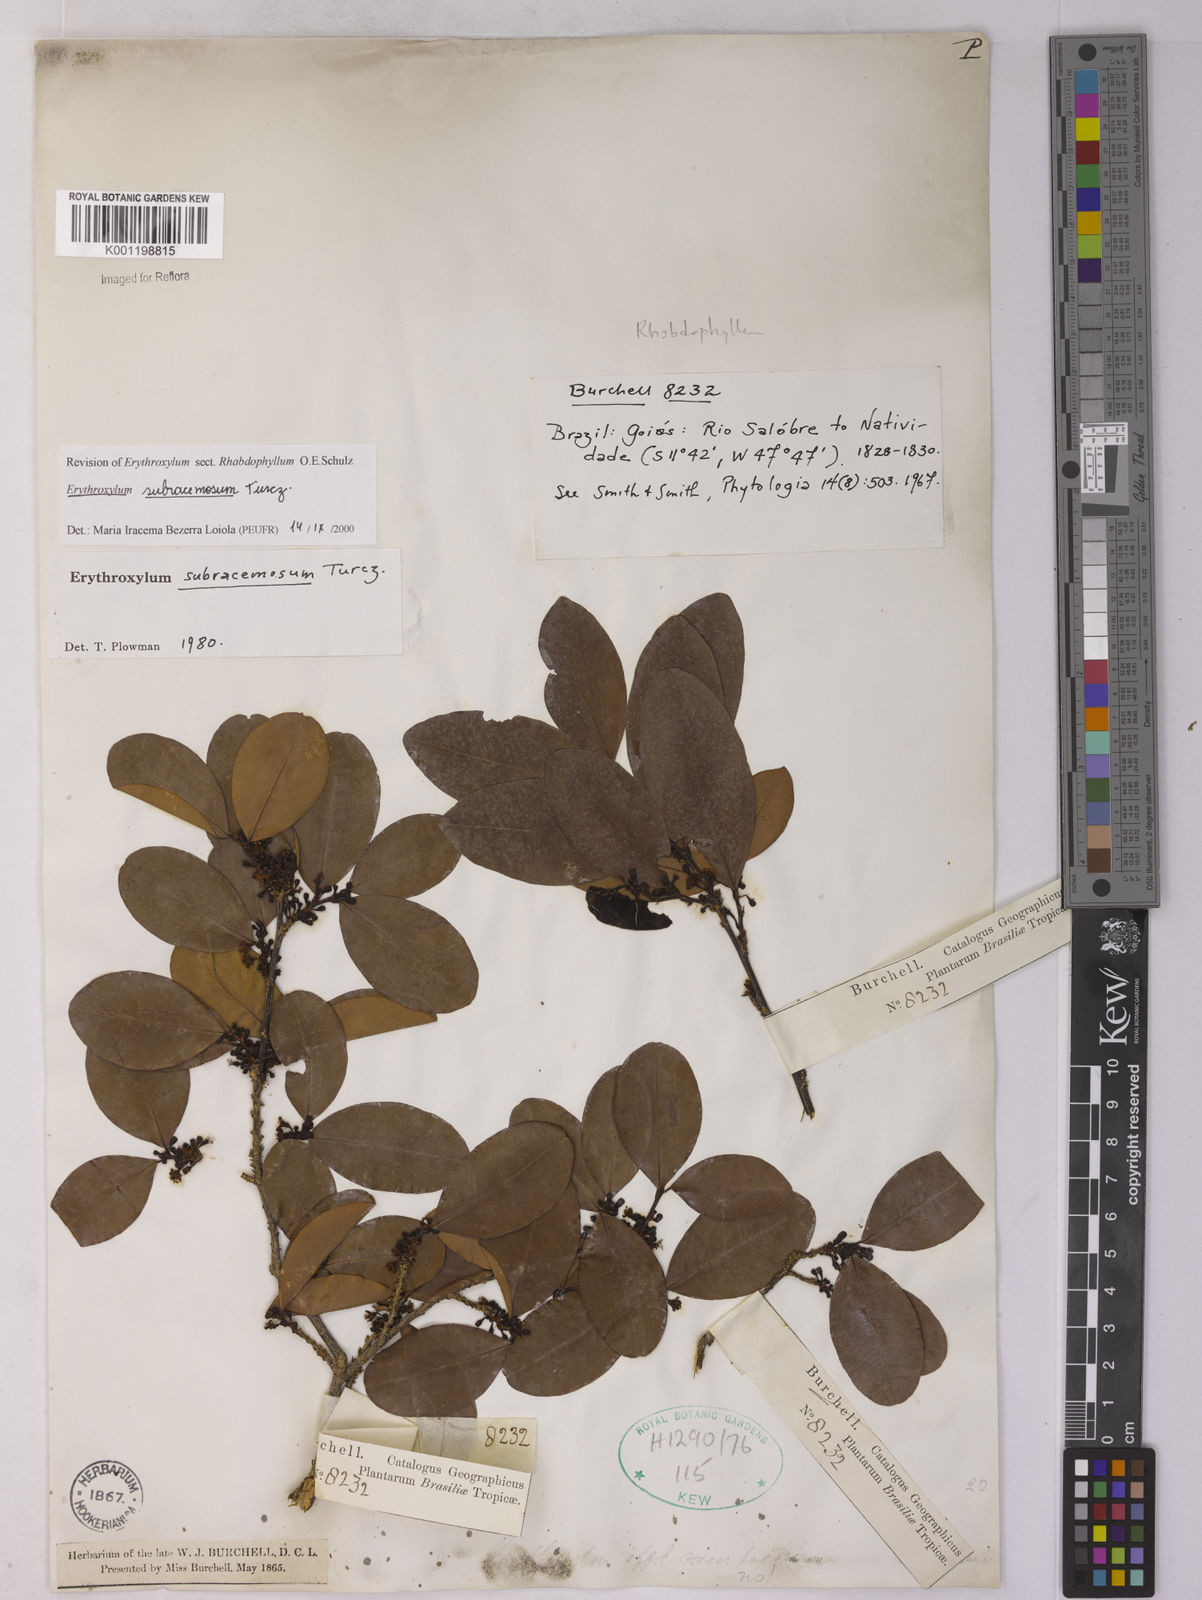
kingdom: Plantae
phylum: Tracheophyta
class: Magnoliopsida
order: Malpighiales
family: Erythroxylaceae
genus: Erythroxylum
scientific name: Erythroxylum subracemosum
